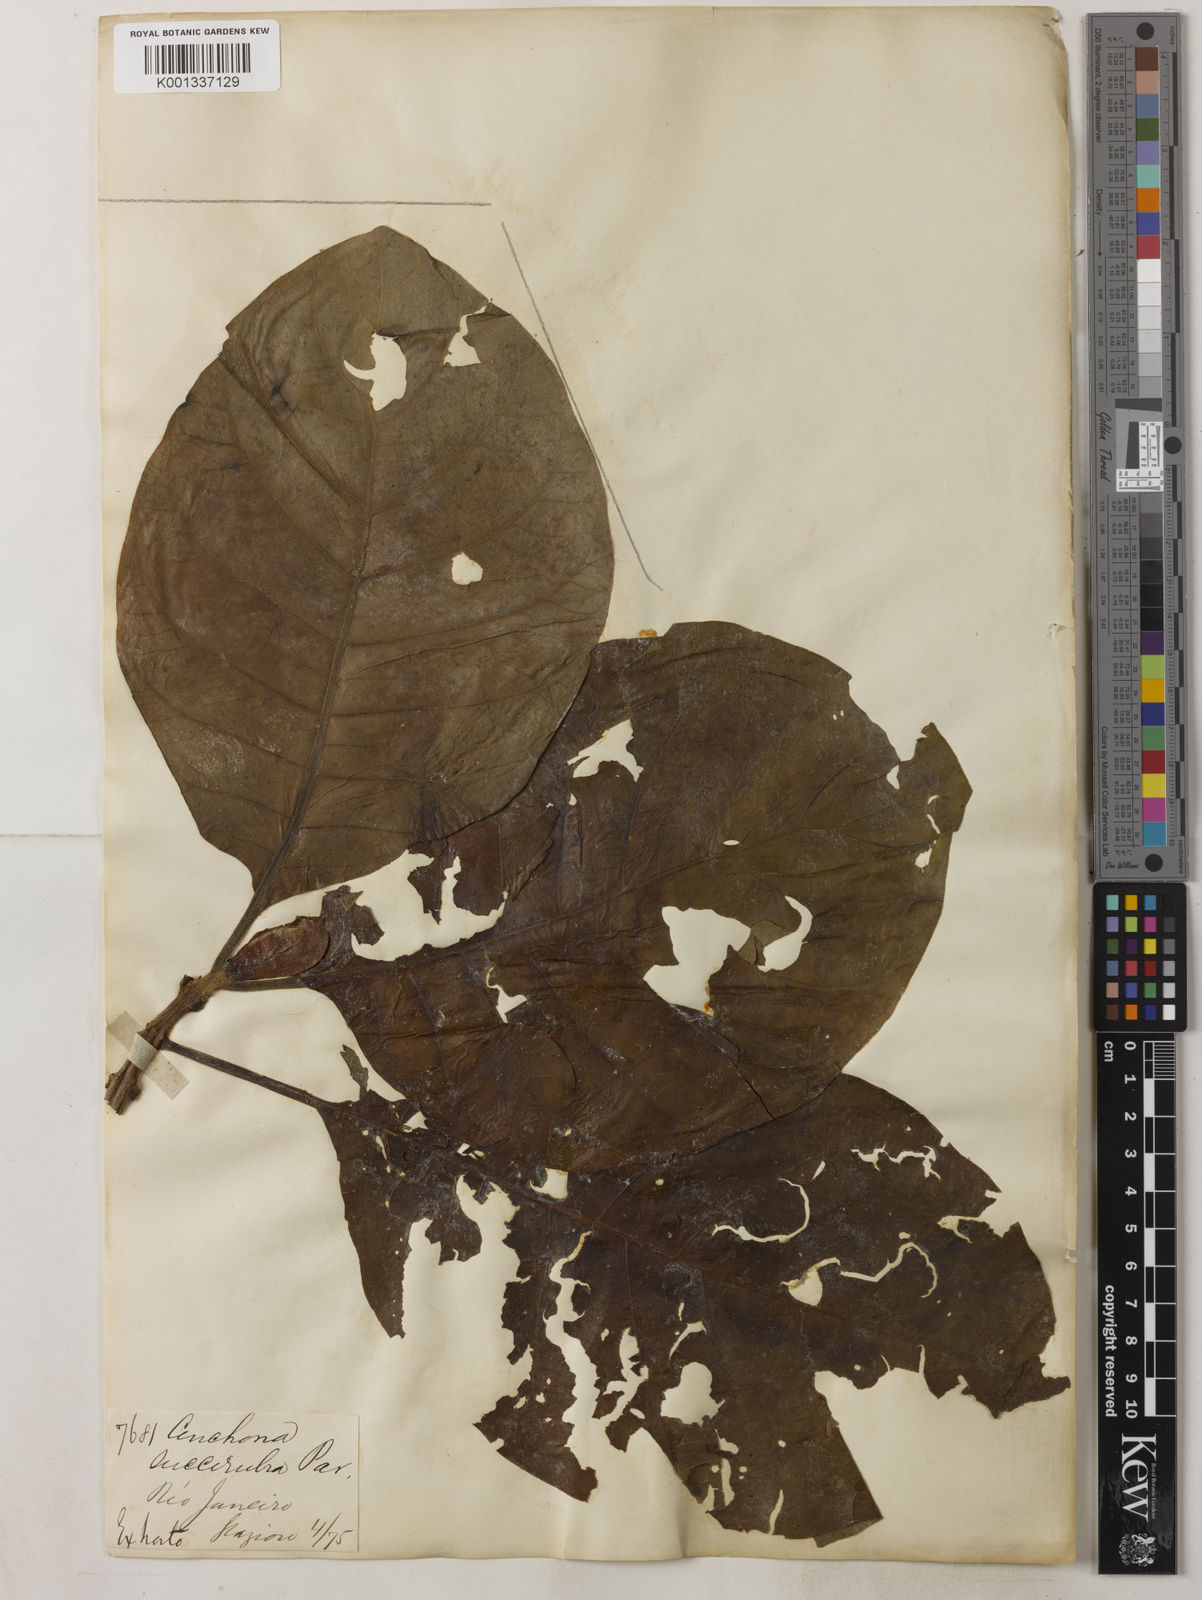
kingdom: Plantae
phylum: Tracheophyta
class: Magnoliopsida
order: Gentianales
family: Rubiaceae
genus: Cinchona
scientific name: Cinchona pubescens
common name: Quinine
